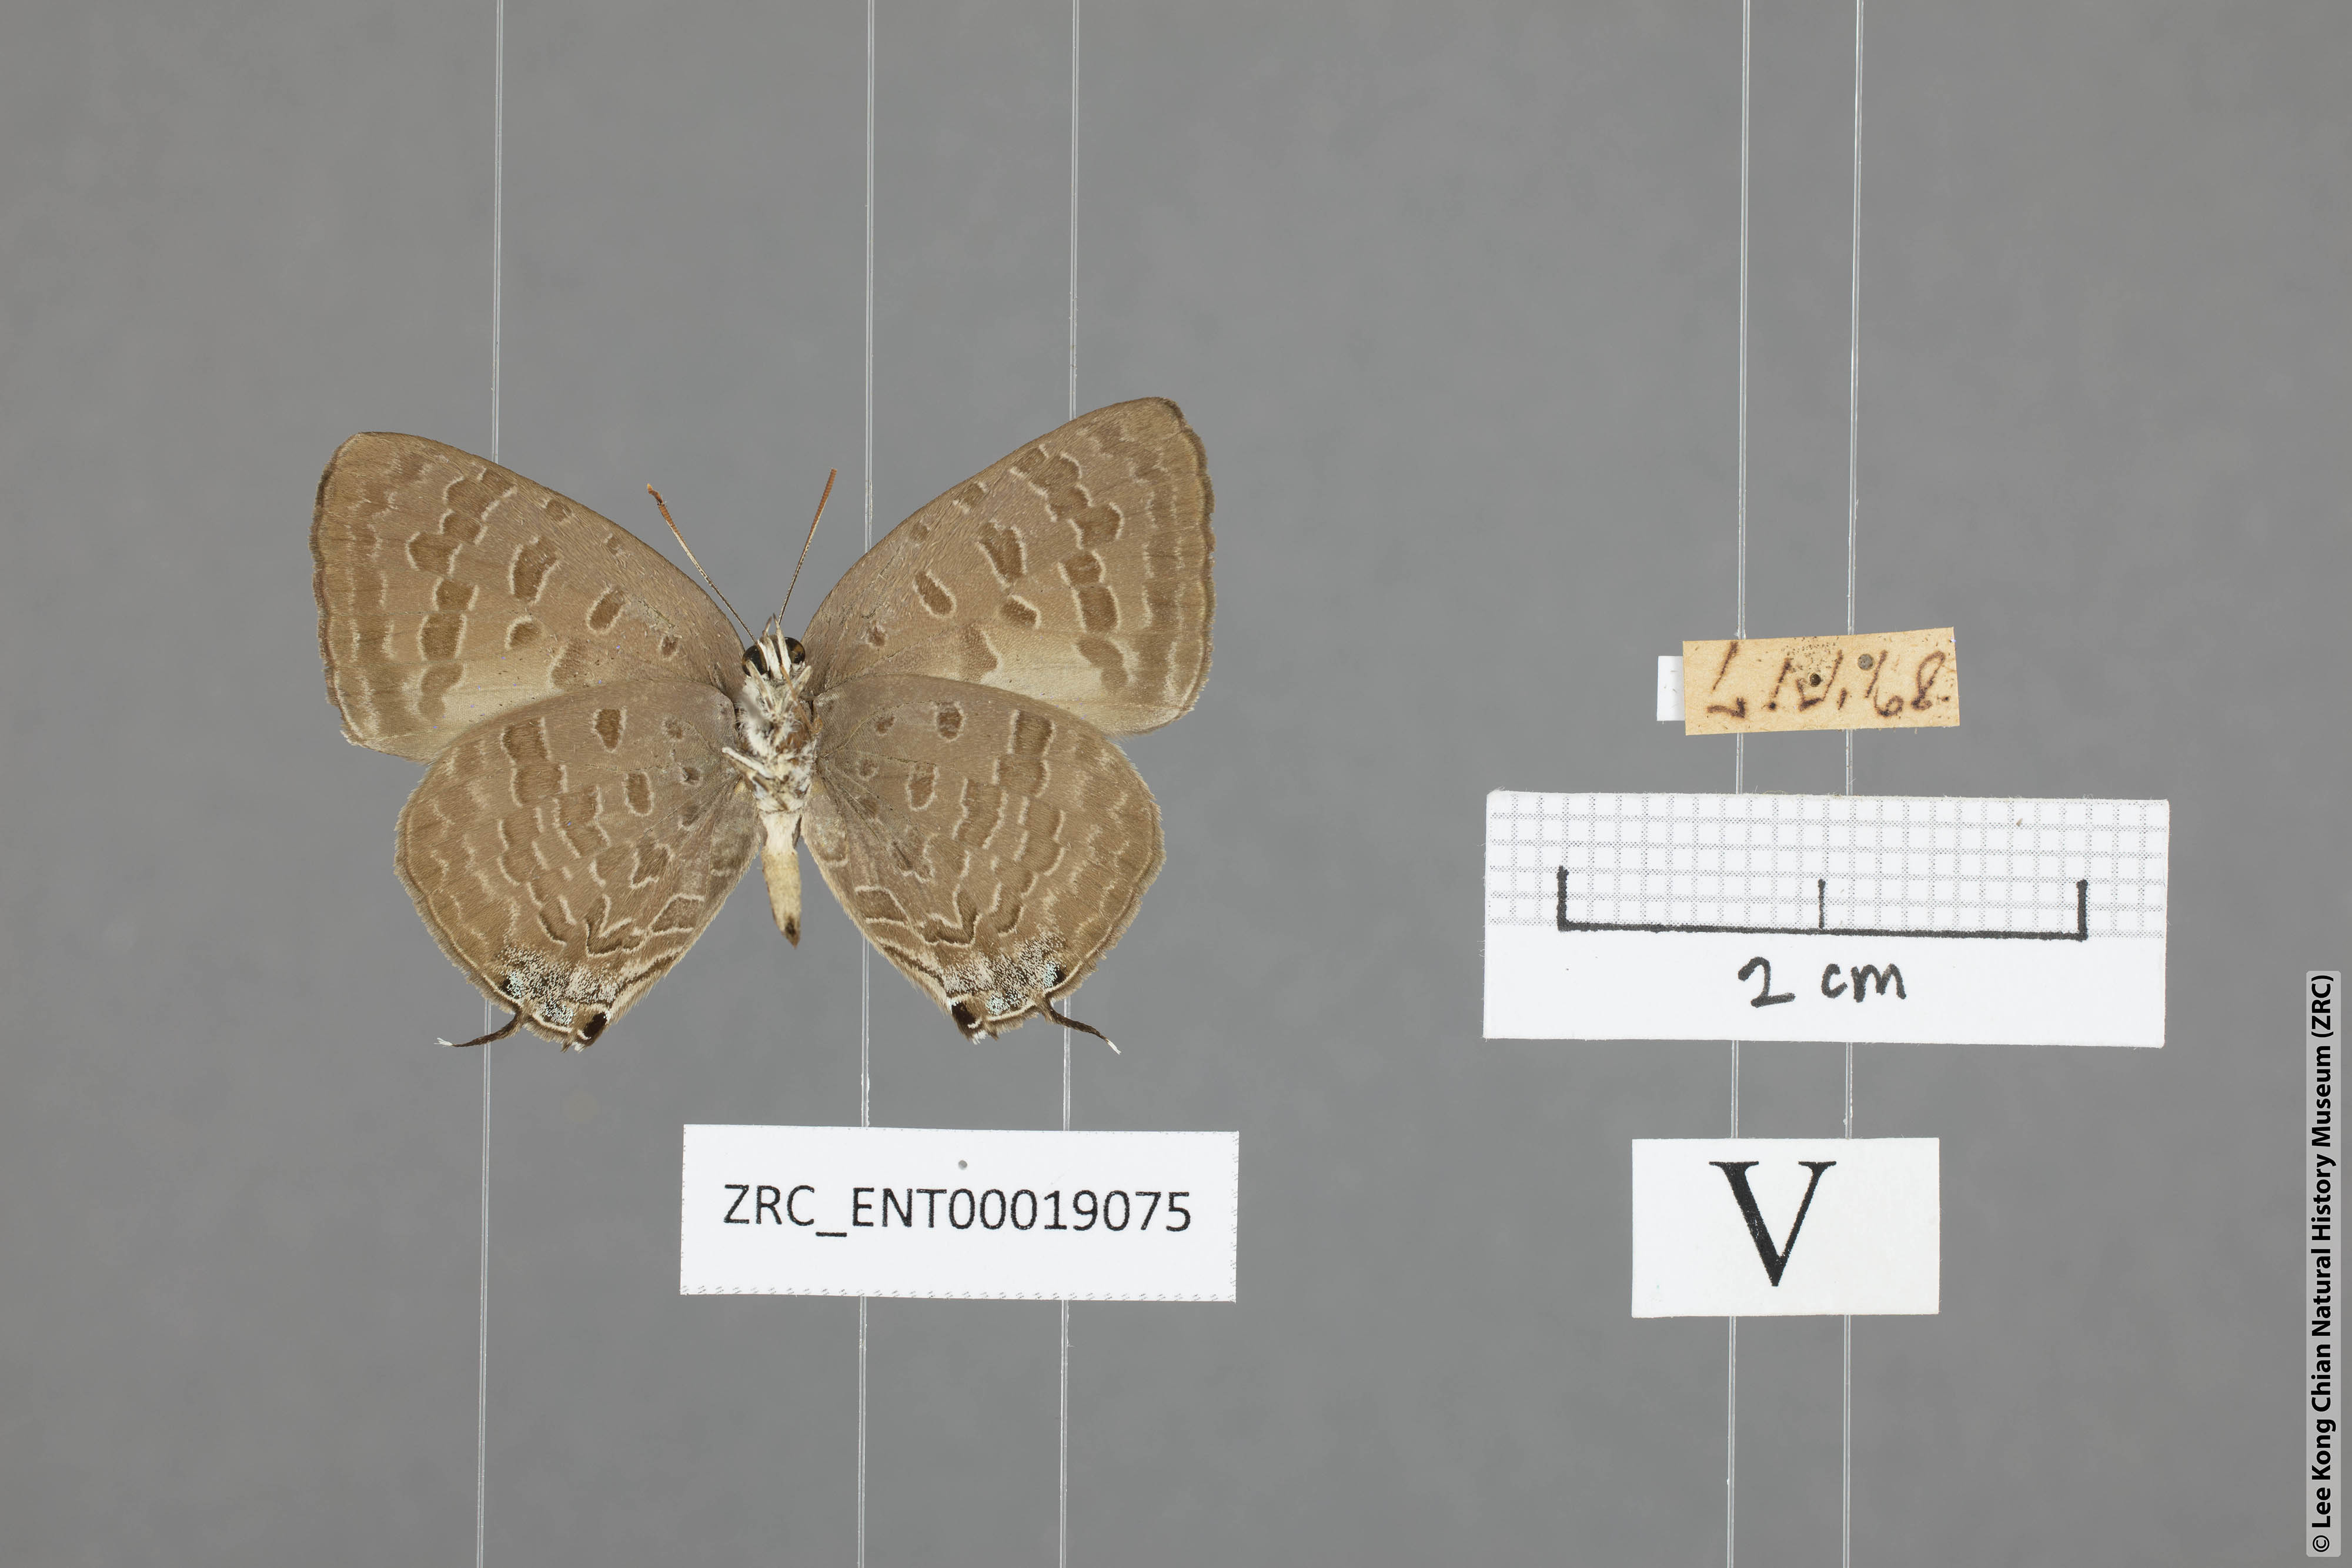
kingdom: Animalia
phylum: Arthropoda
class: Insecta
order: Lepidoptera
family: Lycaenidae
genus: Arhopala
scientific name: Arhopala aida
